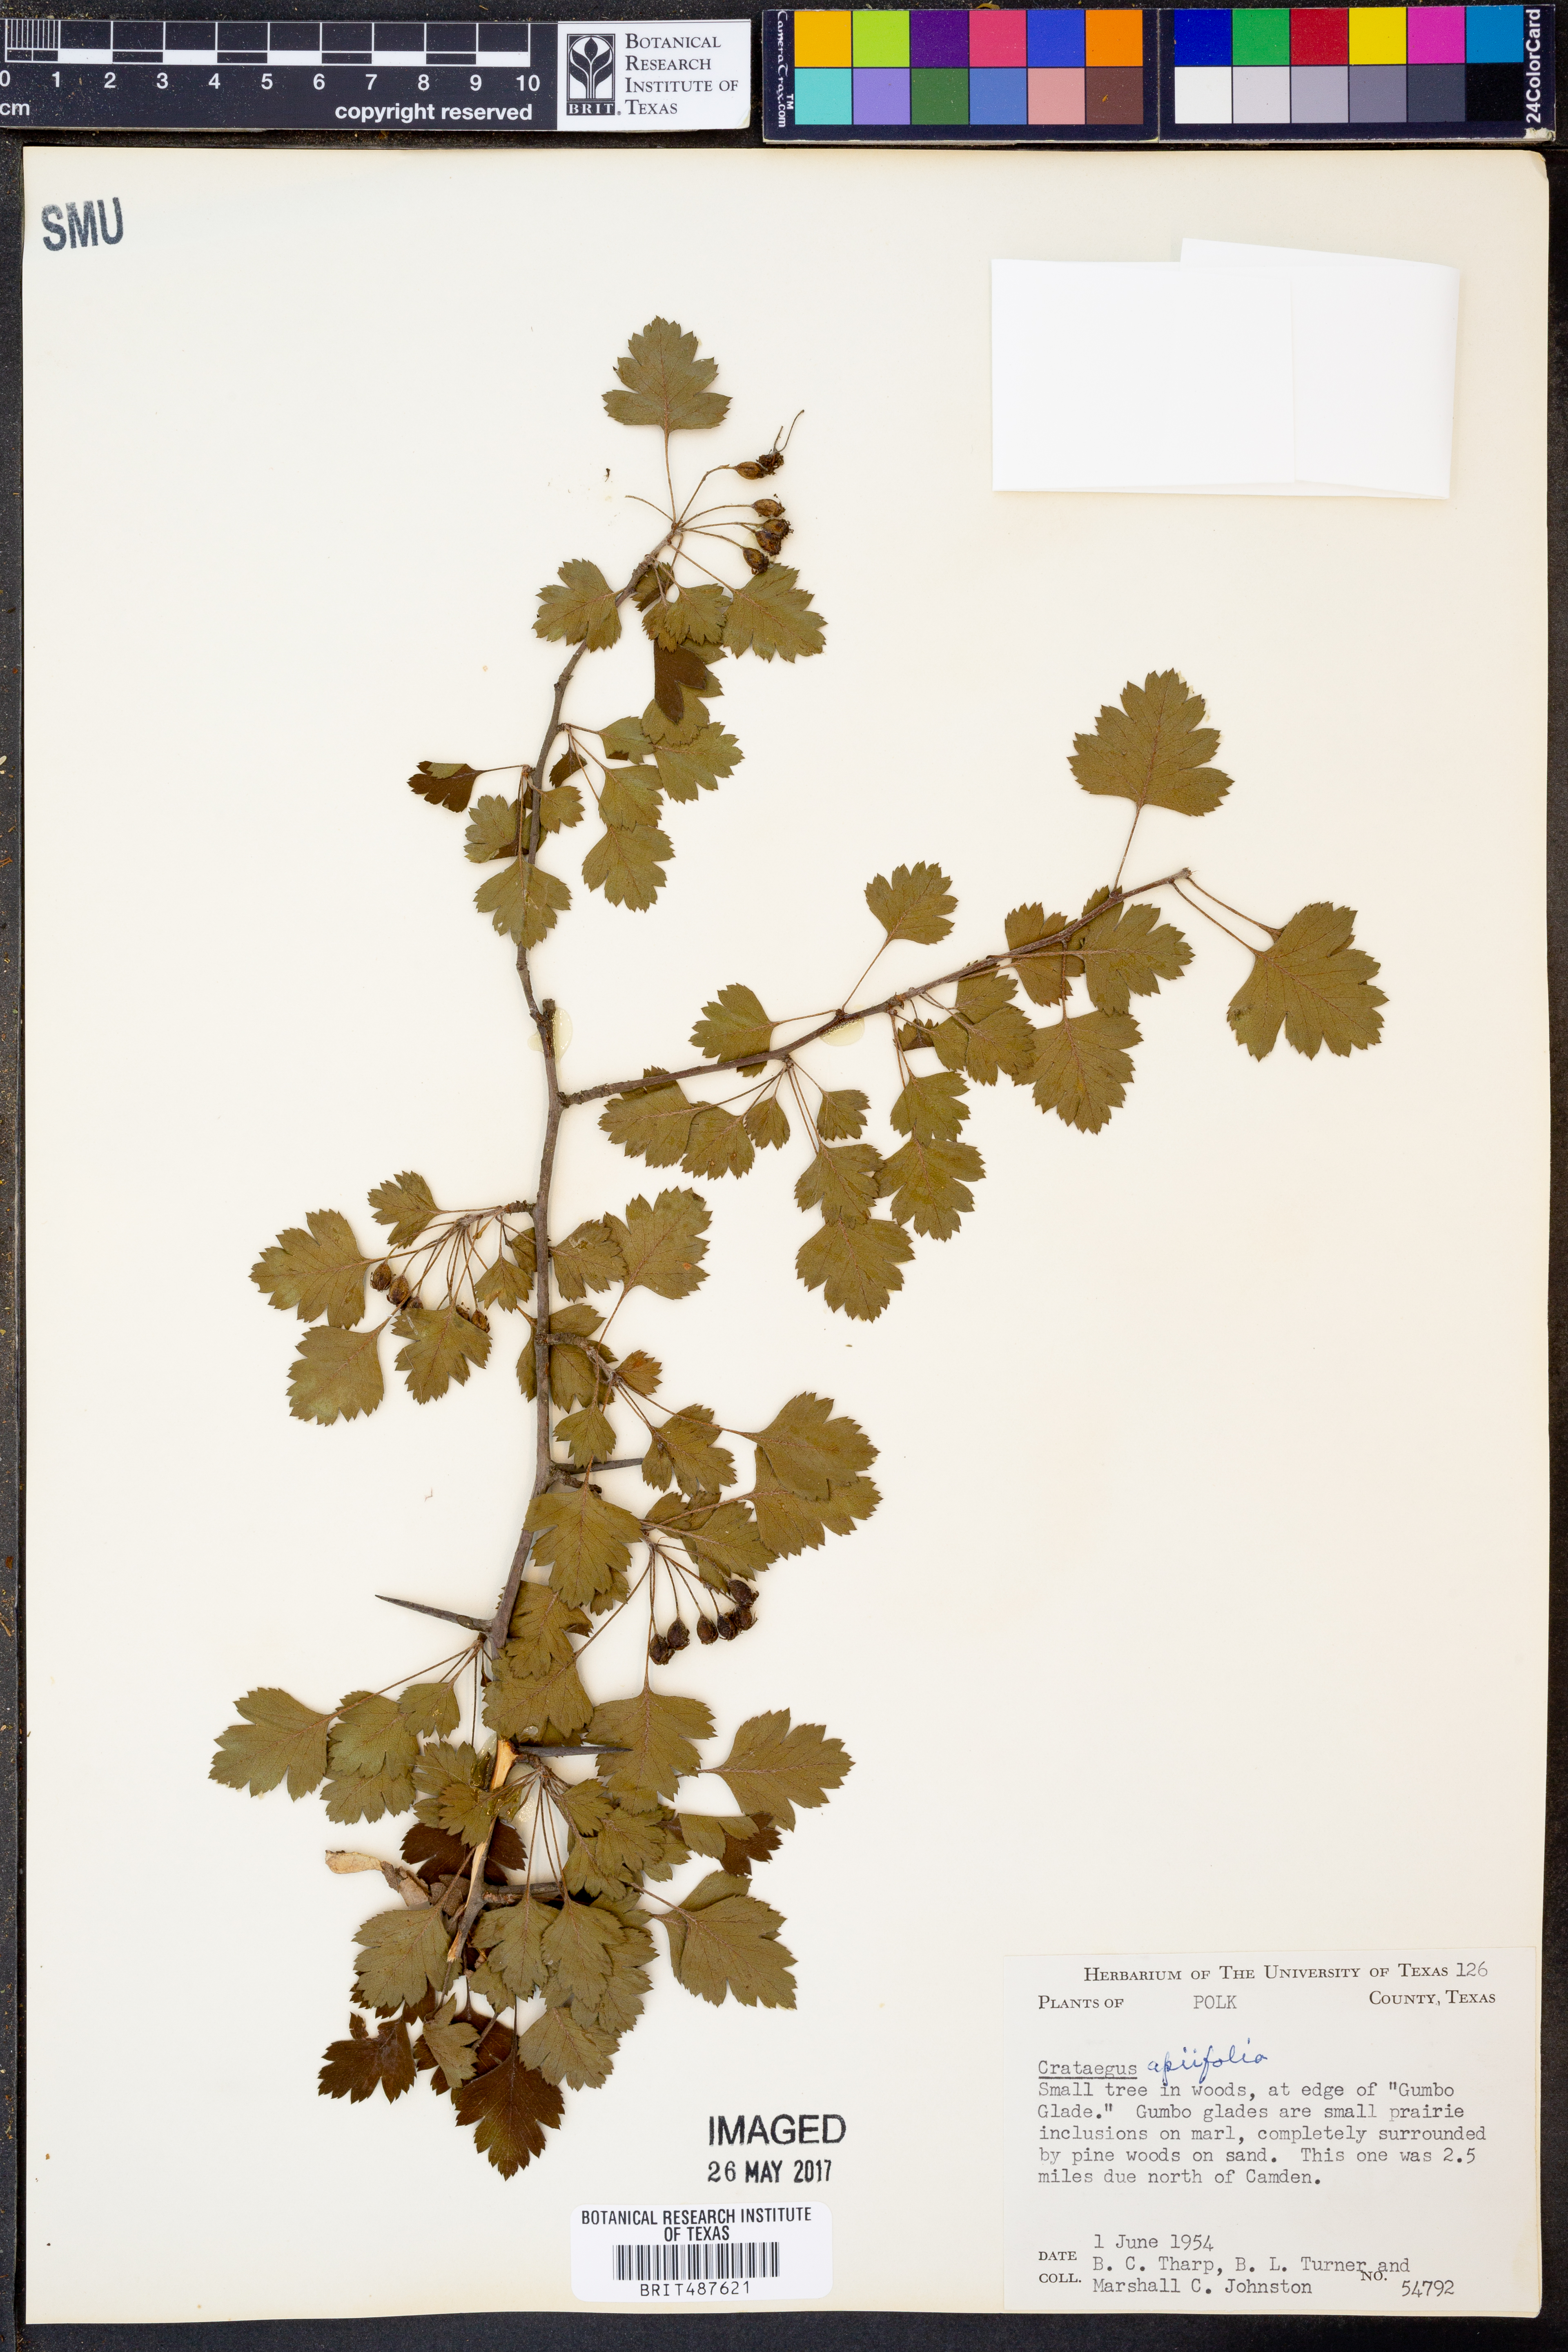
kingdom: Plantae
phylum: Tracheophyta
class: Magnoliopsida
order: Rosales
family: Rosaceae
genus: Crataegus
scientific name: Crataegus
